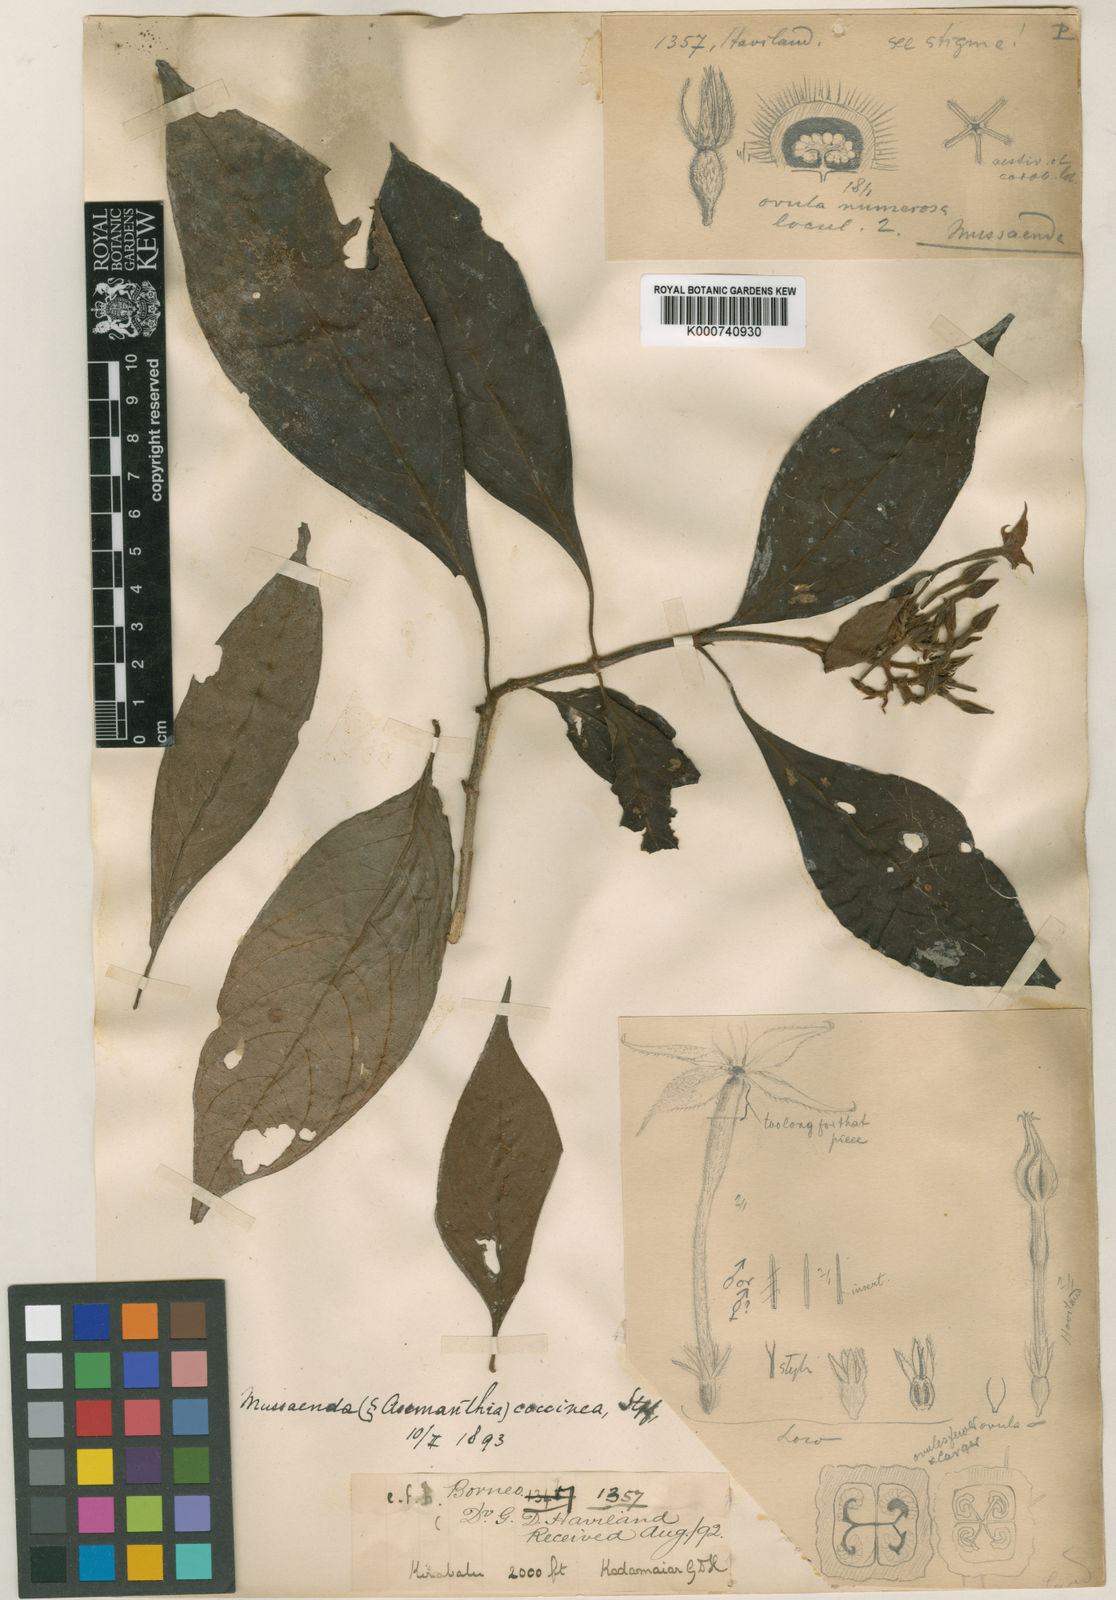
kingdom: Plantae
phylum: Tracheophyta
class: Magnoliopsida
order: Gentianales
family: Rubiaceae
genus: Mussaenda
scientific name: Mussaenda sabahensis
